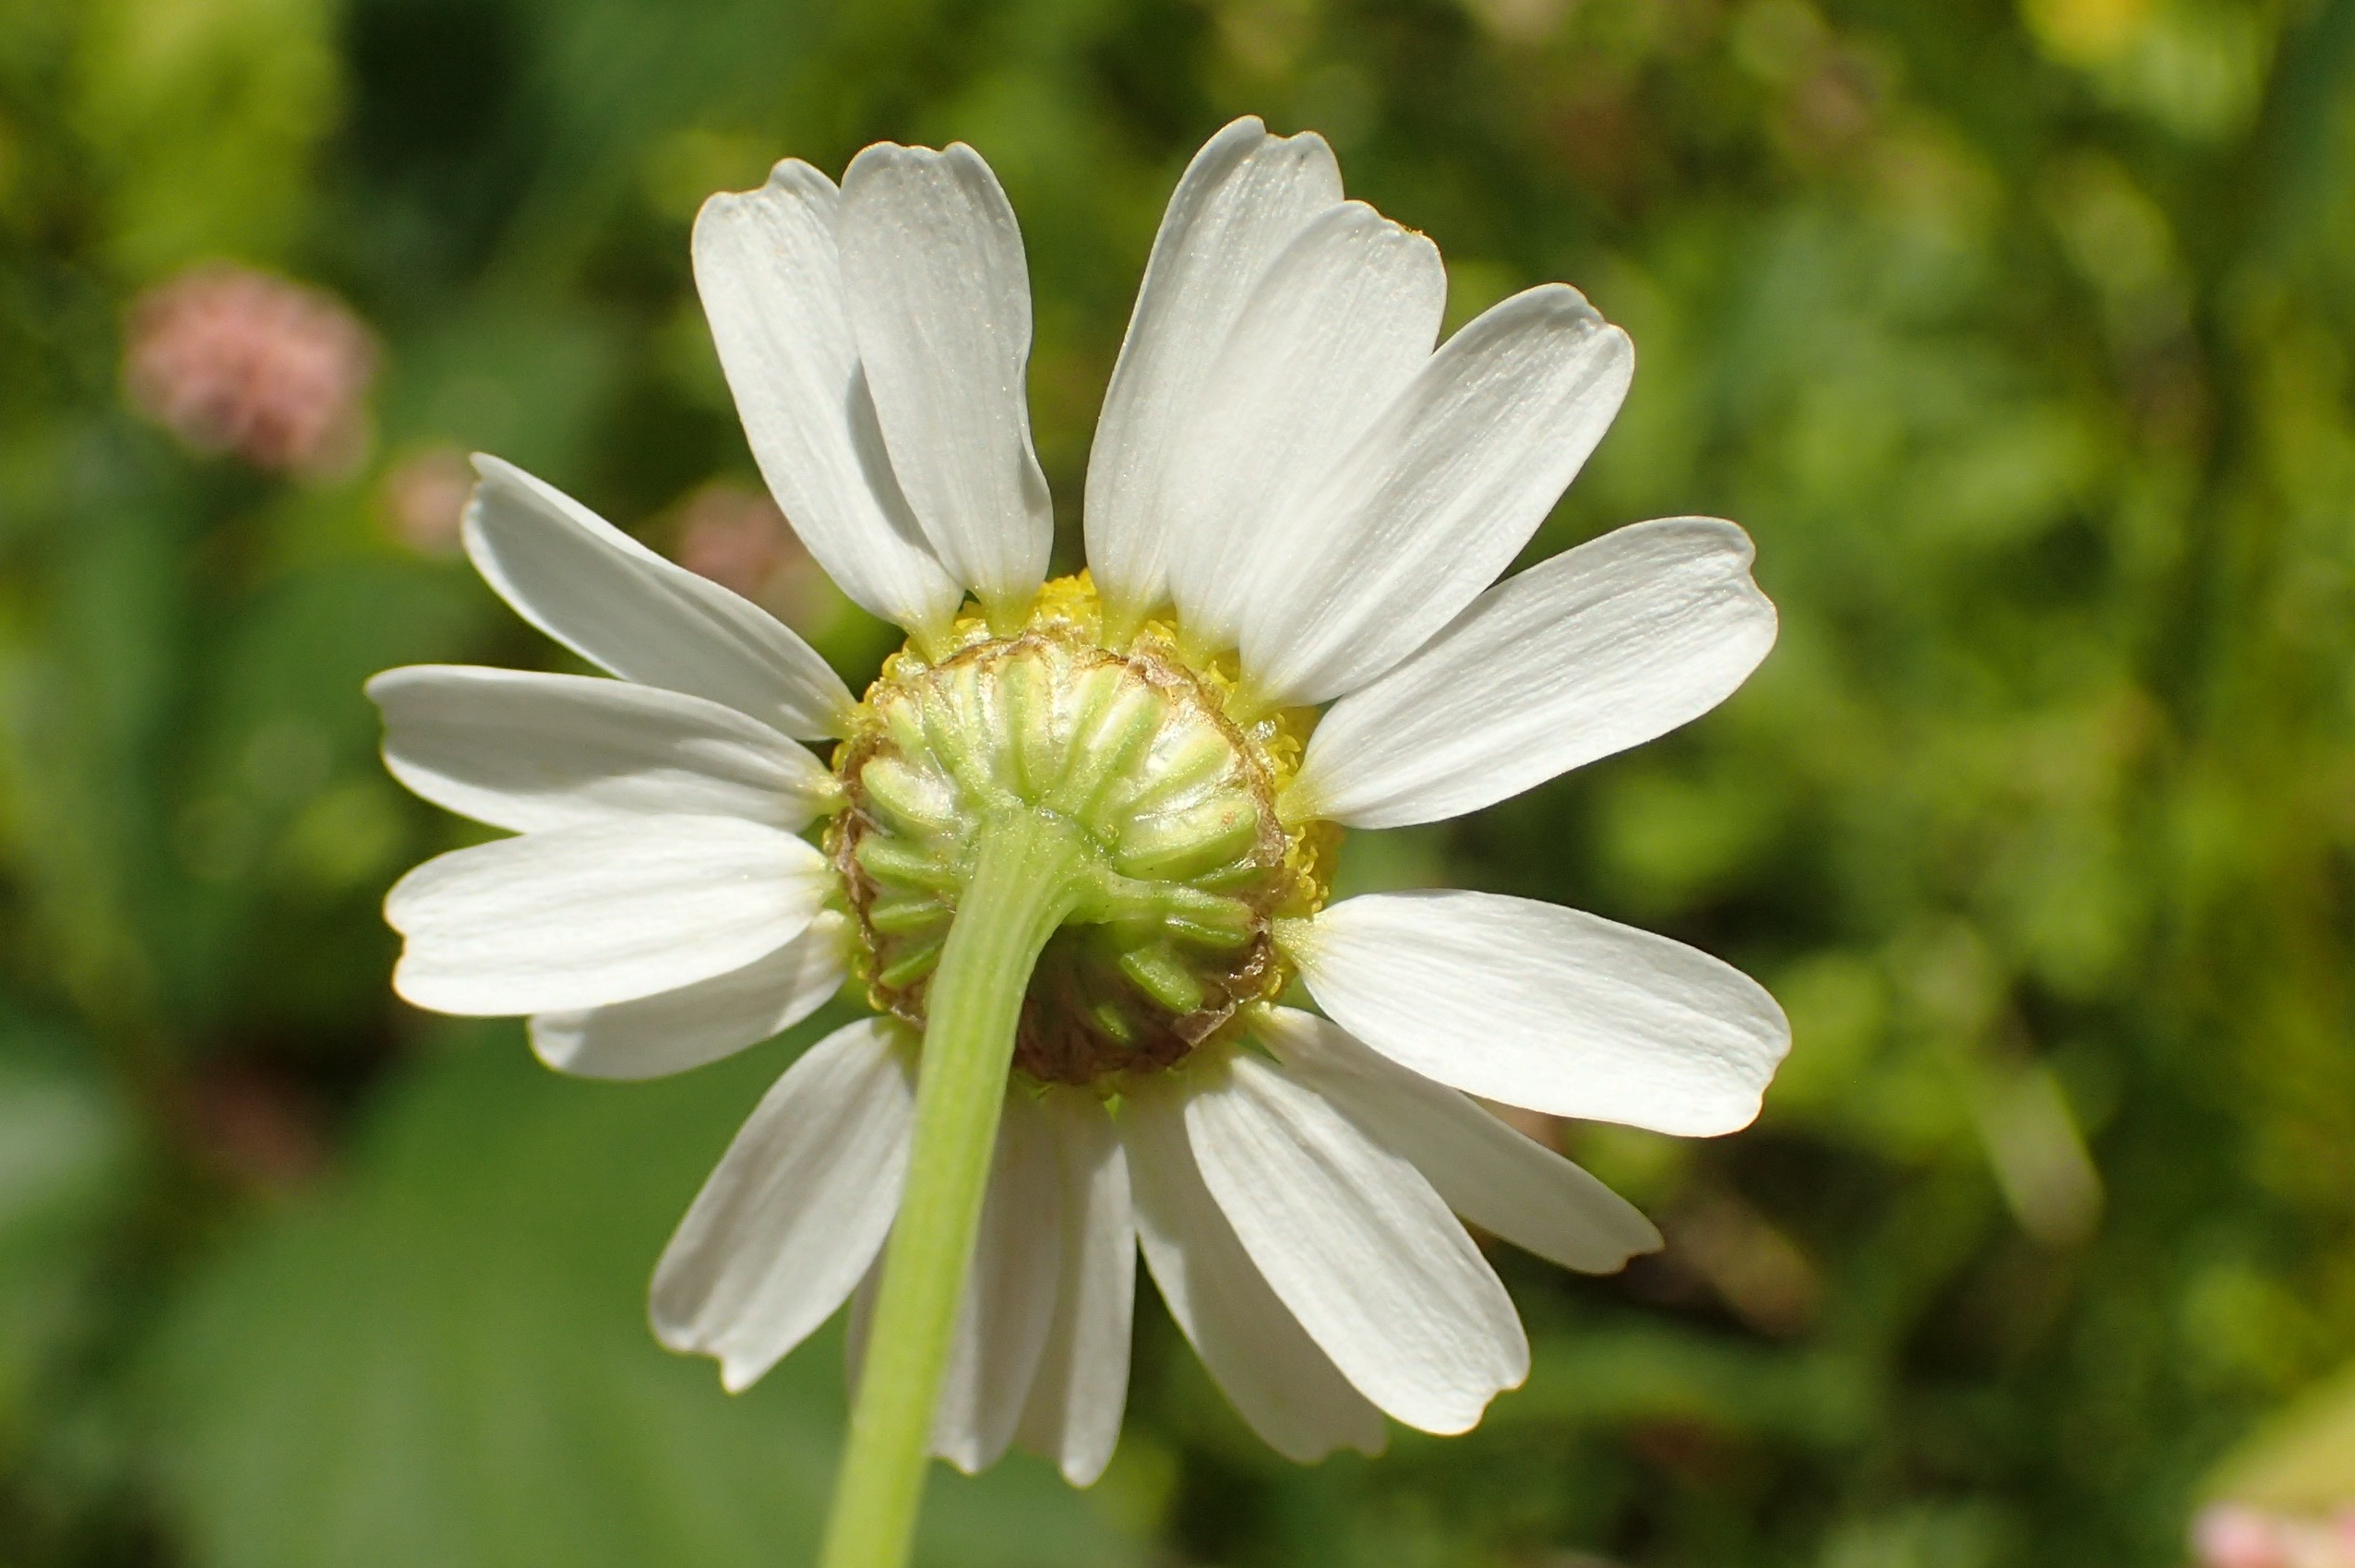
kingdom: Plantae
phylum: Tracheophyta
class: Magnoliopsida
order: Asterales
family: Asteraceae
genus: Matricaria
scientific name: Matricaria chamomilla
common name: Vellugtende kamille
